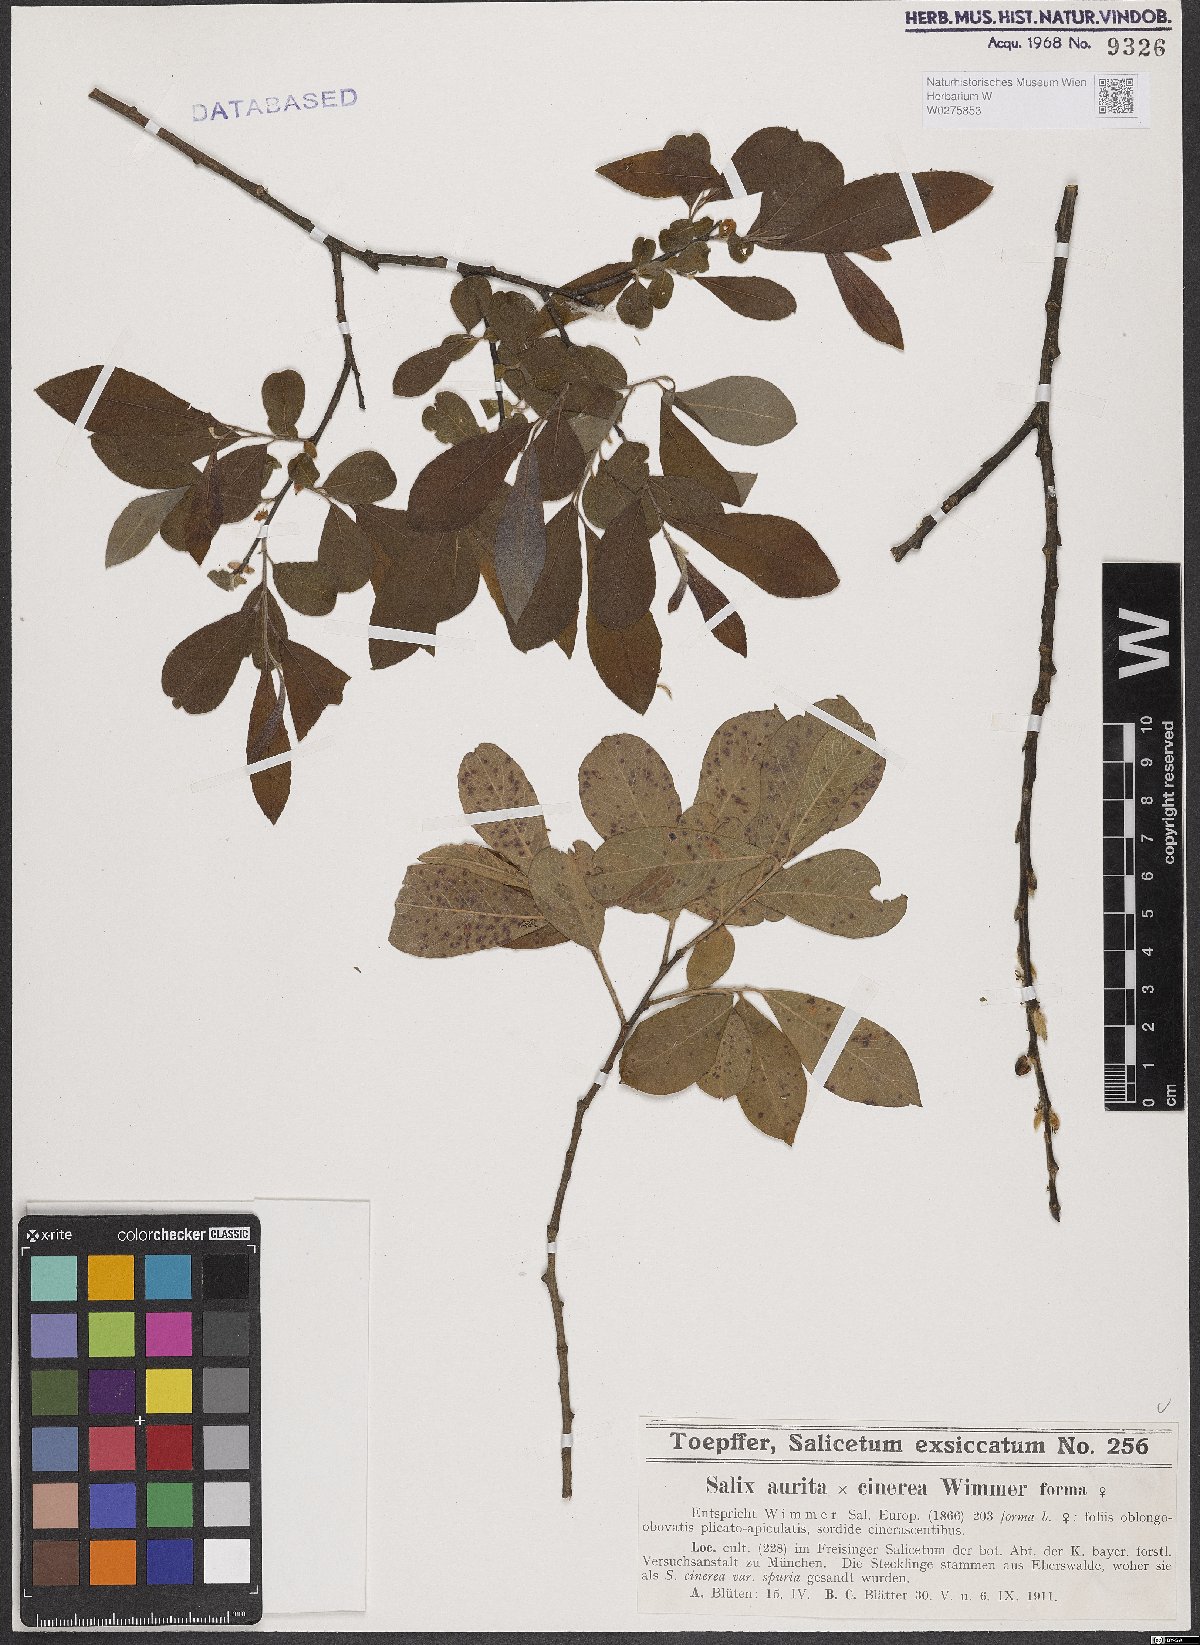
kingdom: Plantae
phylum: Tracheophyta
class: Magnoliopsida
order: Malpighiales
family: Salicaceae
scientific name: Salicaceae
